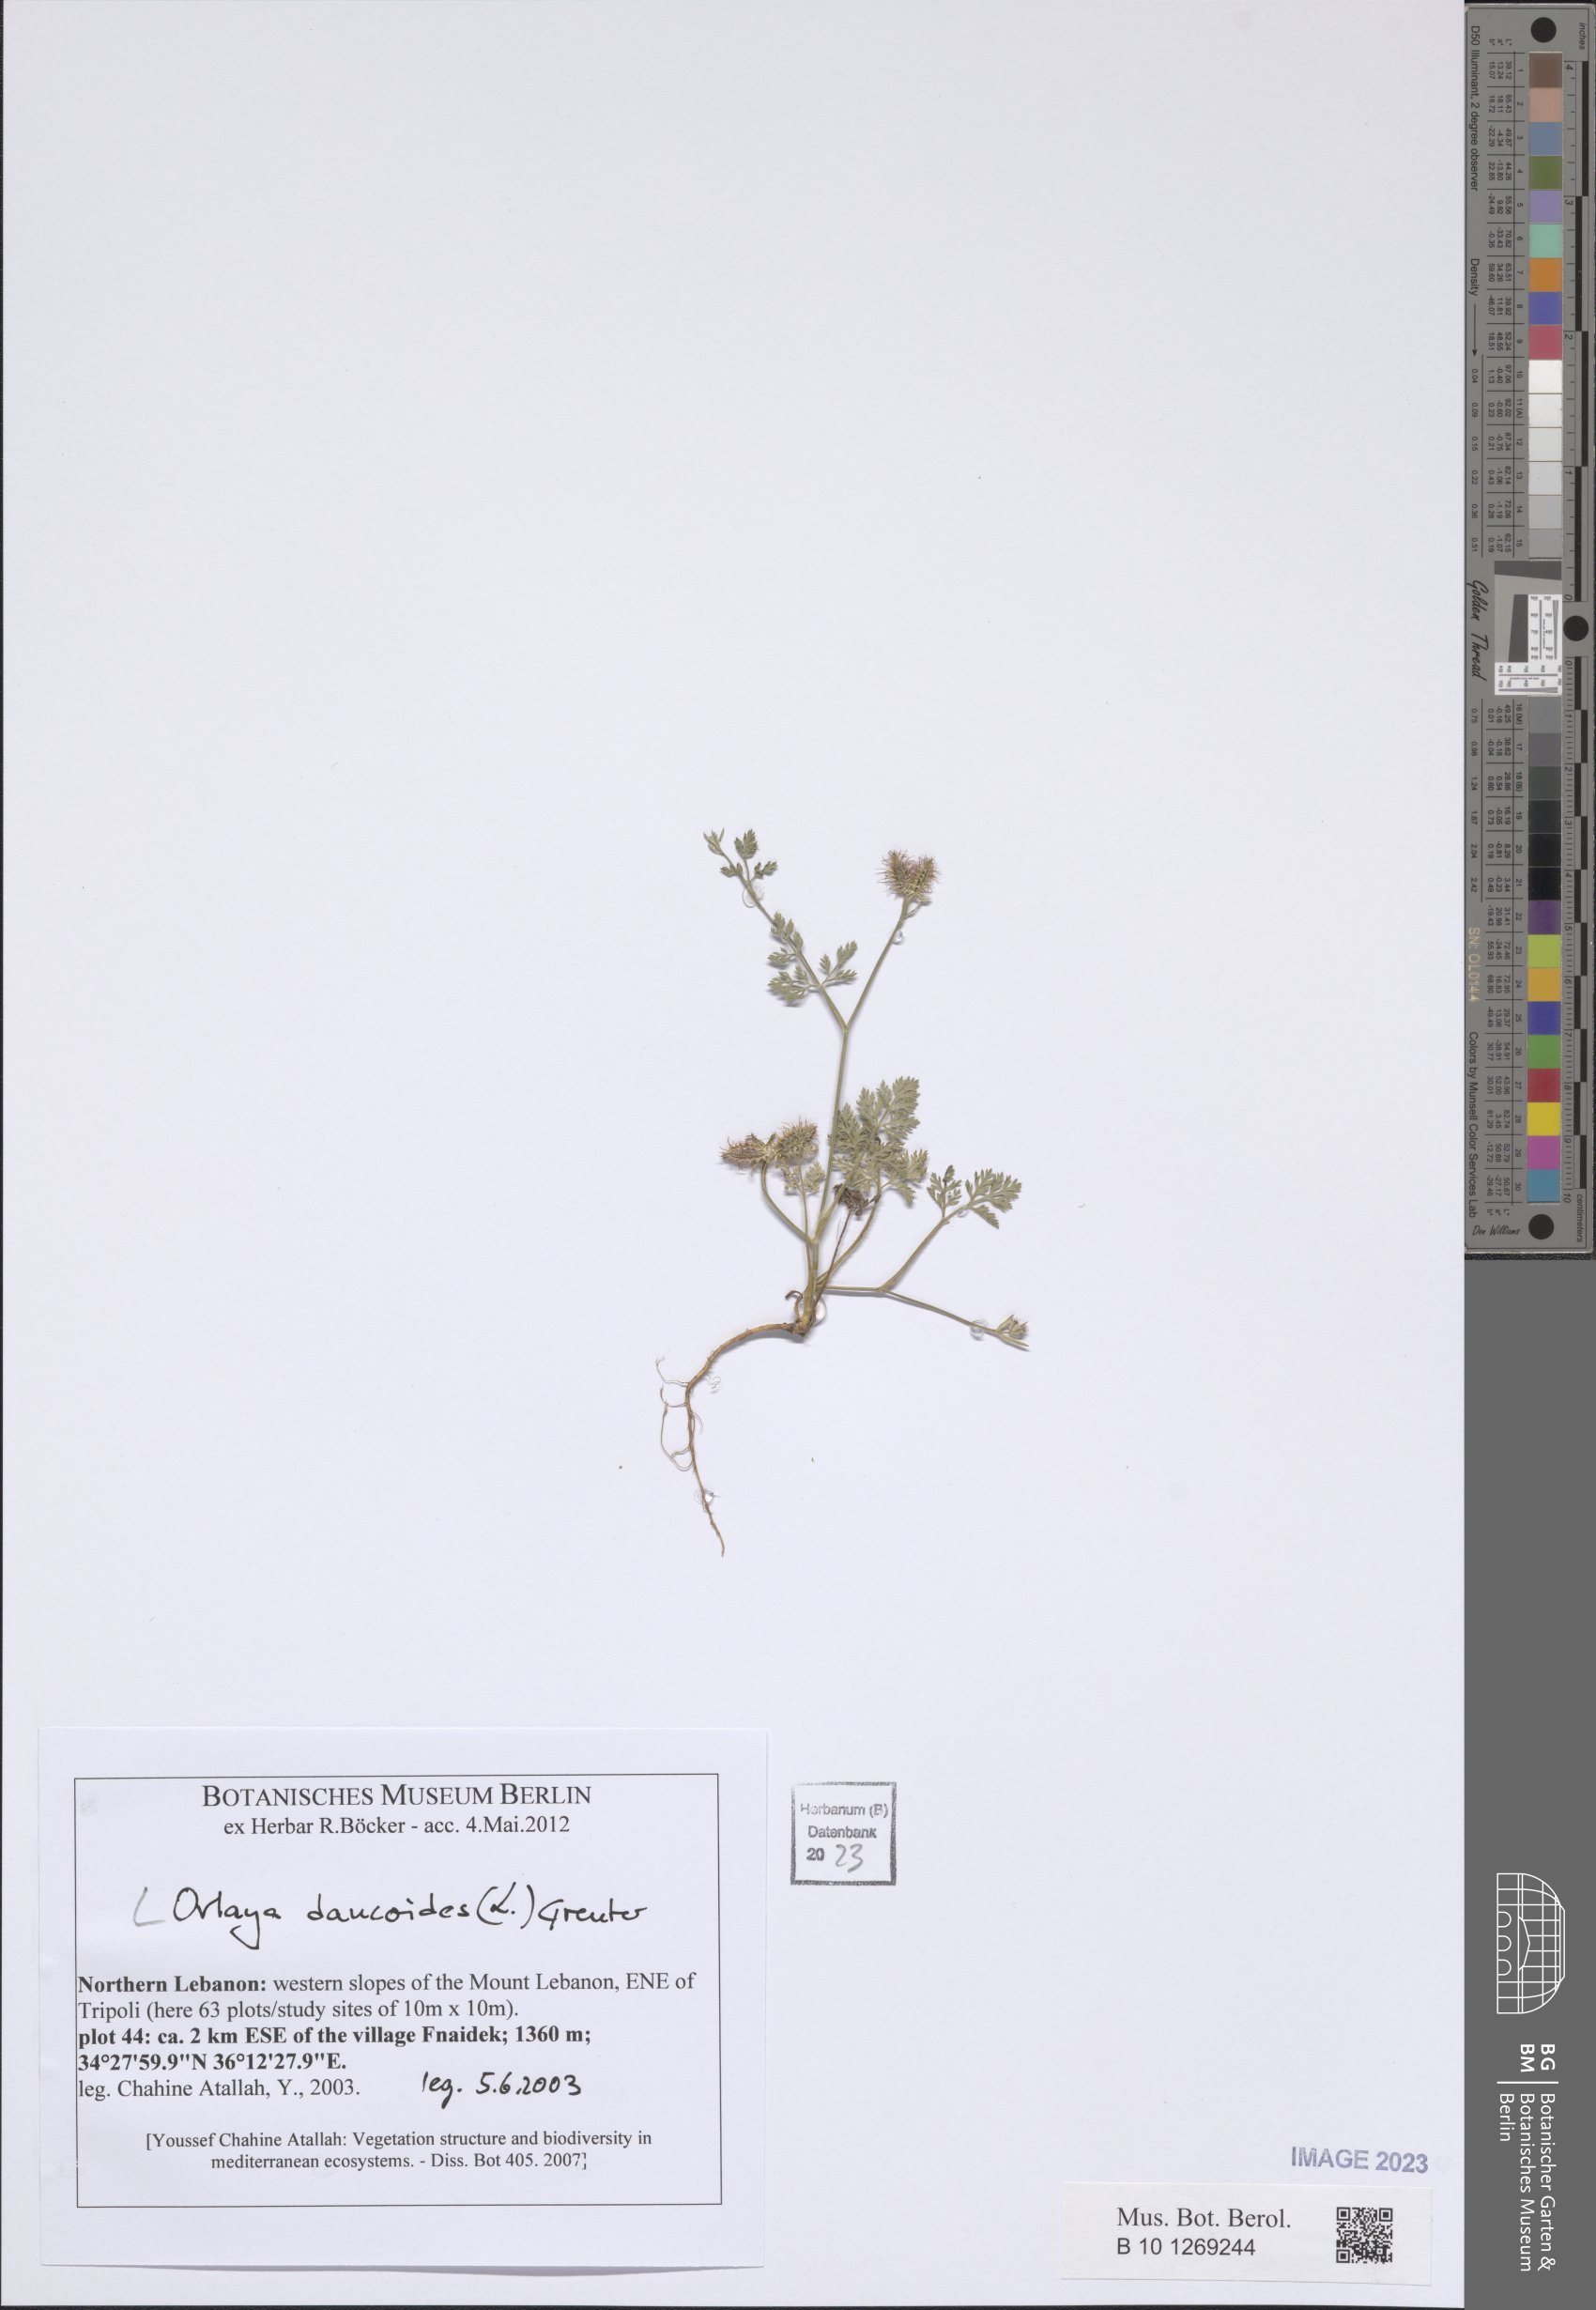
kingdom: Plantae
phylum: Tracheophyta
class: Magnoliopsida
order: Apiales
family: Apiaceae
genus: Orlaya
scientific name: Orlaya daucoides
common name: Flat-fruit orlaya
